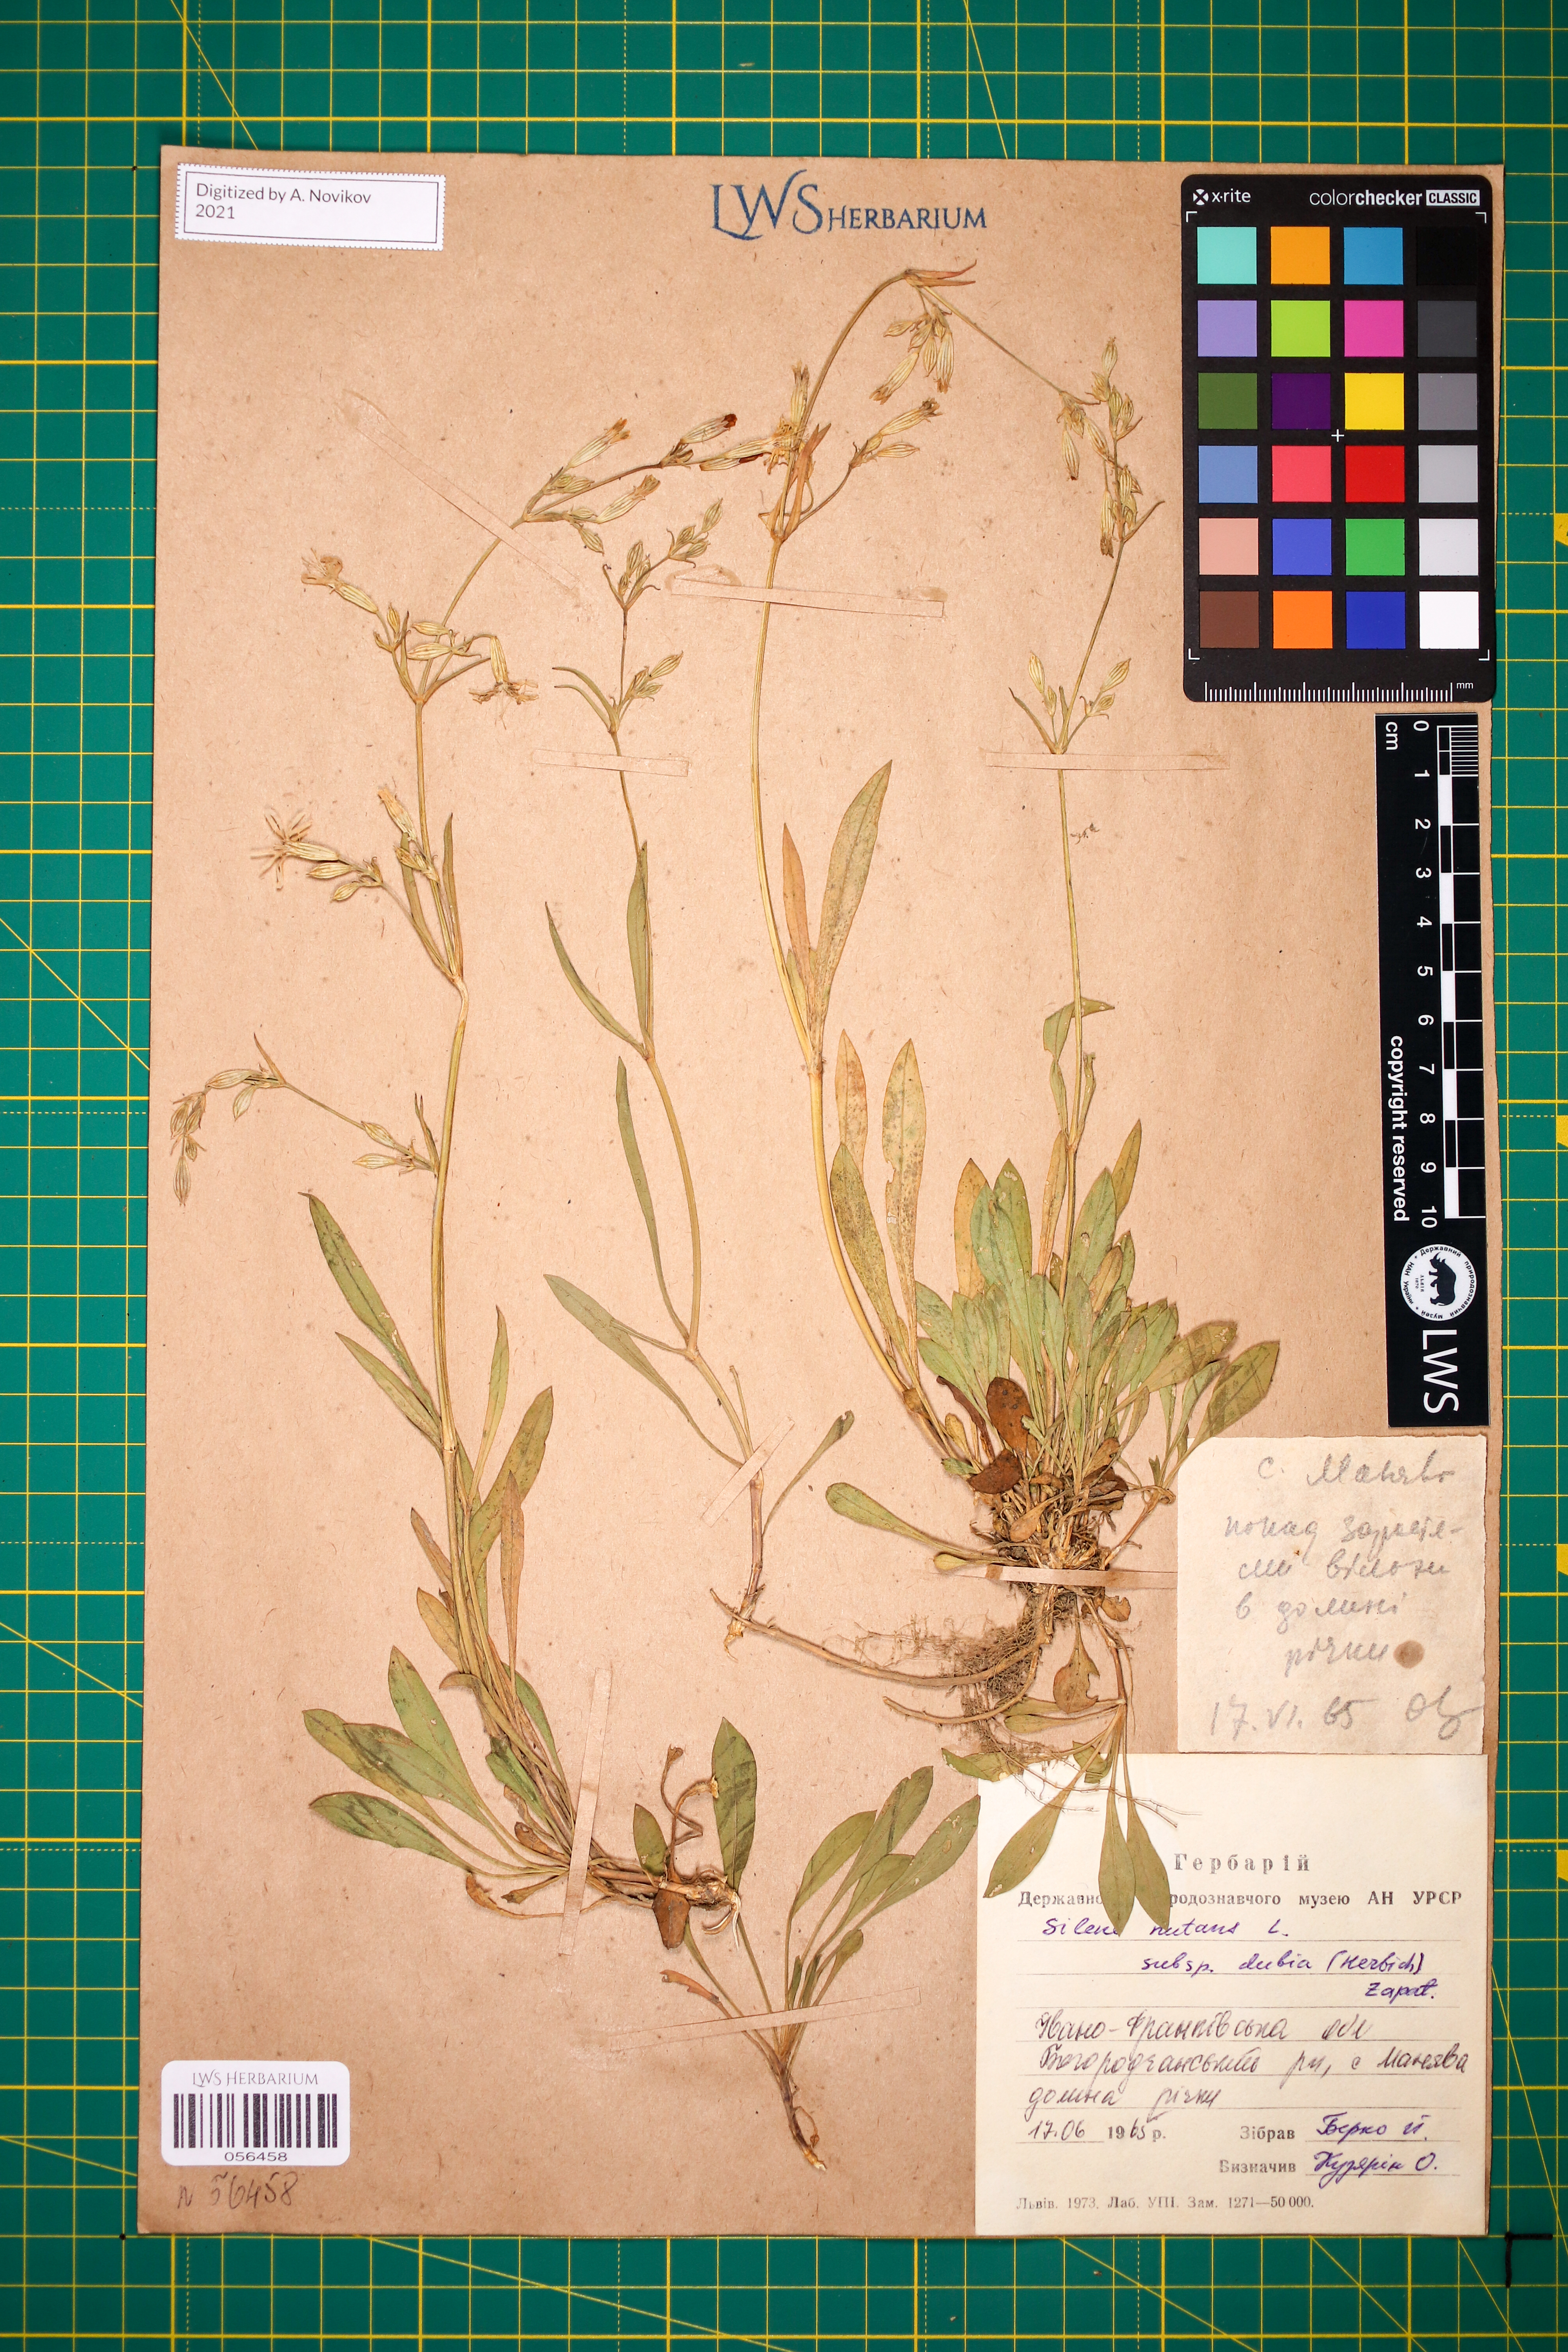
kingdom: Plantae
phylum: Tracheophyta
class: Magnoliopsida
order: Caryophyllales
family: Caryophyllaceae
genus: Silene
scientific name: Silene nutans
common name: Nottingham catchfly
